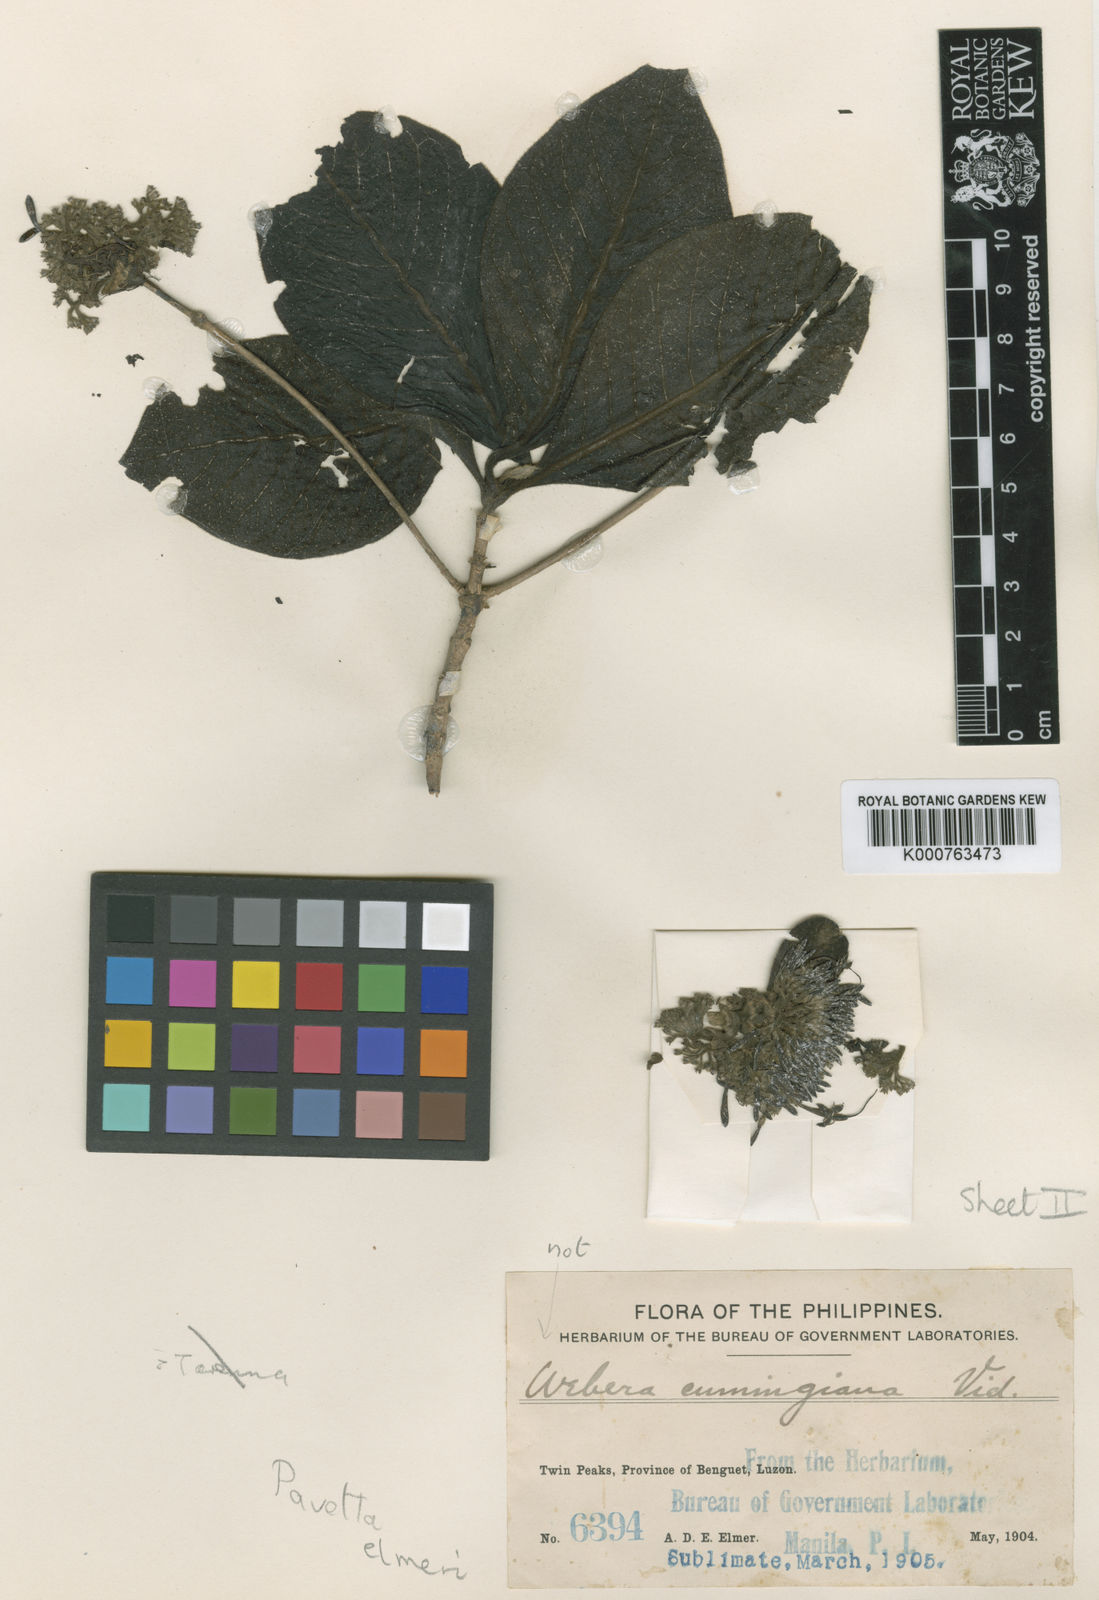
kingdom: Plantae
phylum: Tracheophyta
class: Magnoliopsida
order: Gentianales
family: Rubiaceae
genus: Pavetta
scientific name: Pavetta elmeri
